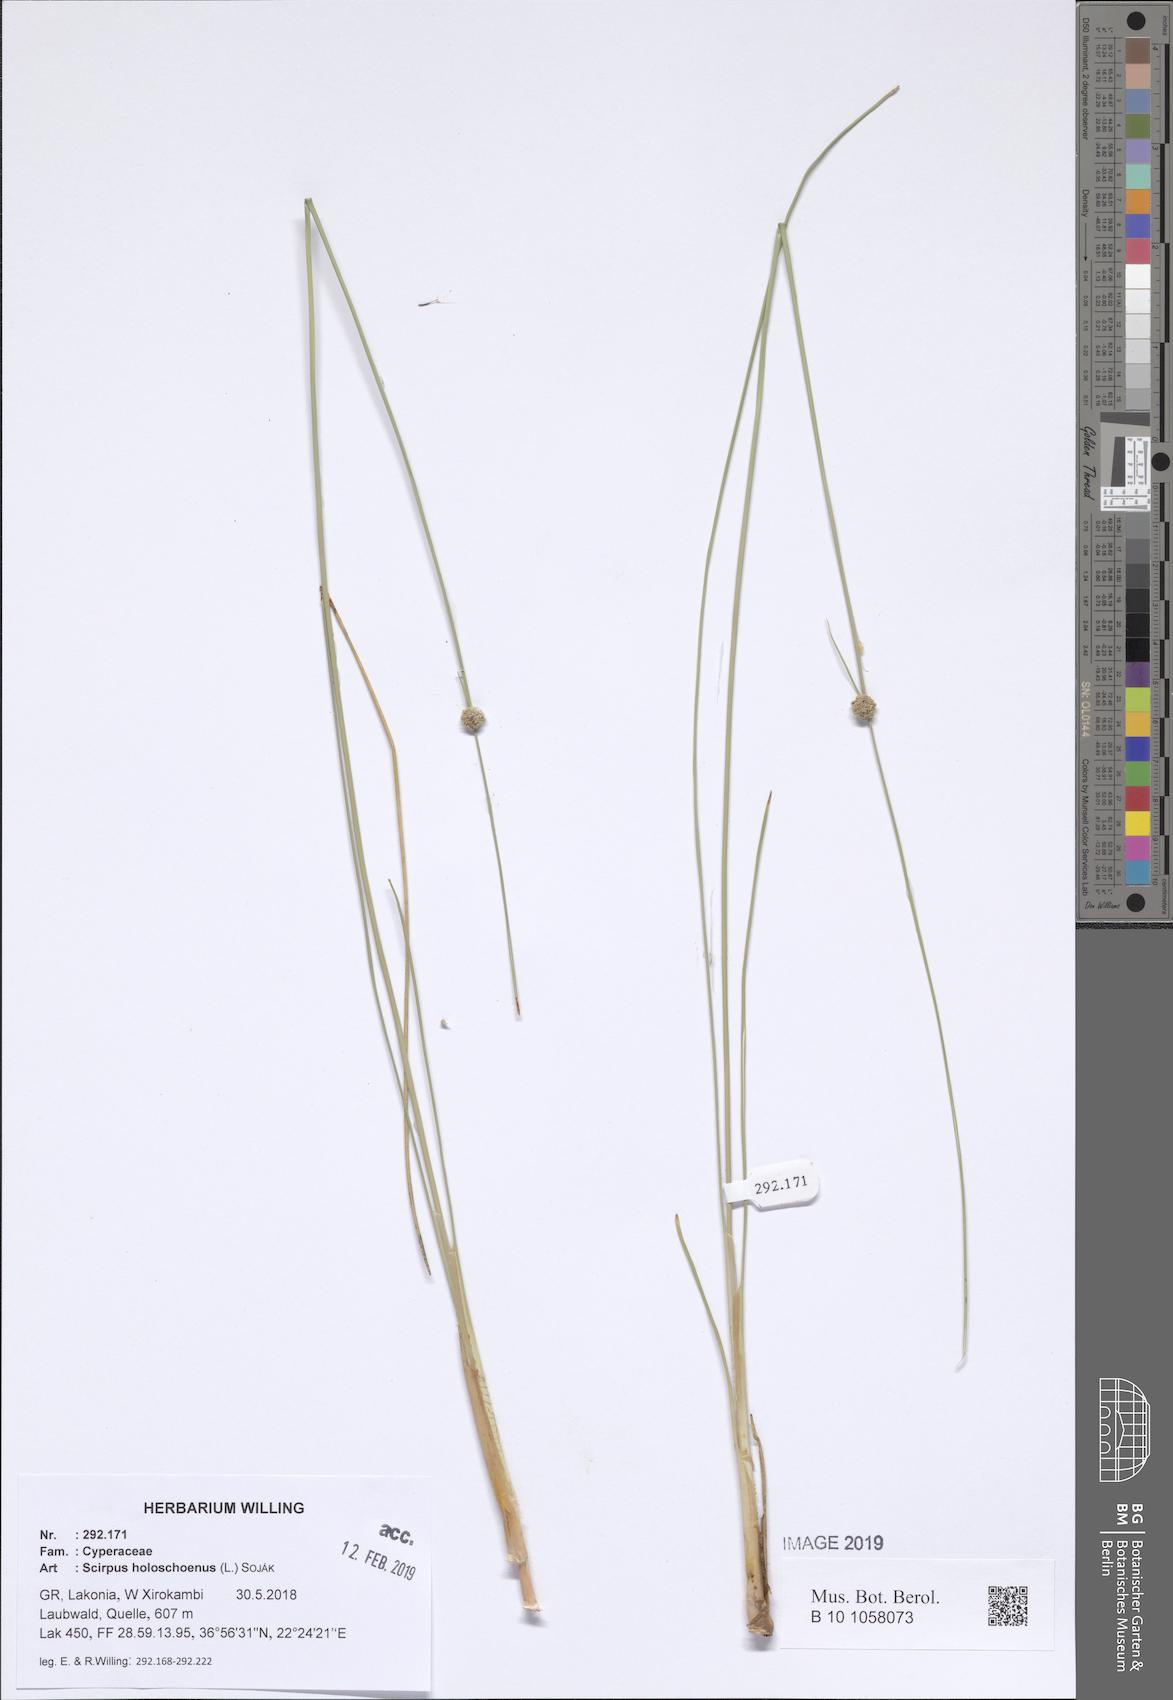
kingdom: Plantae
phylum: Tracheophyta
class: Liliopsida
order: Poales
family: Cyperaceae
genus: Scirpoides
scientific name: Scirpoides holoschoenus
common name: Round-headed club-rush
